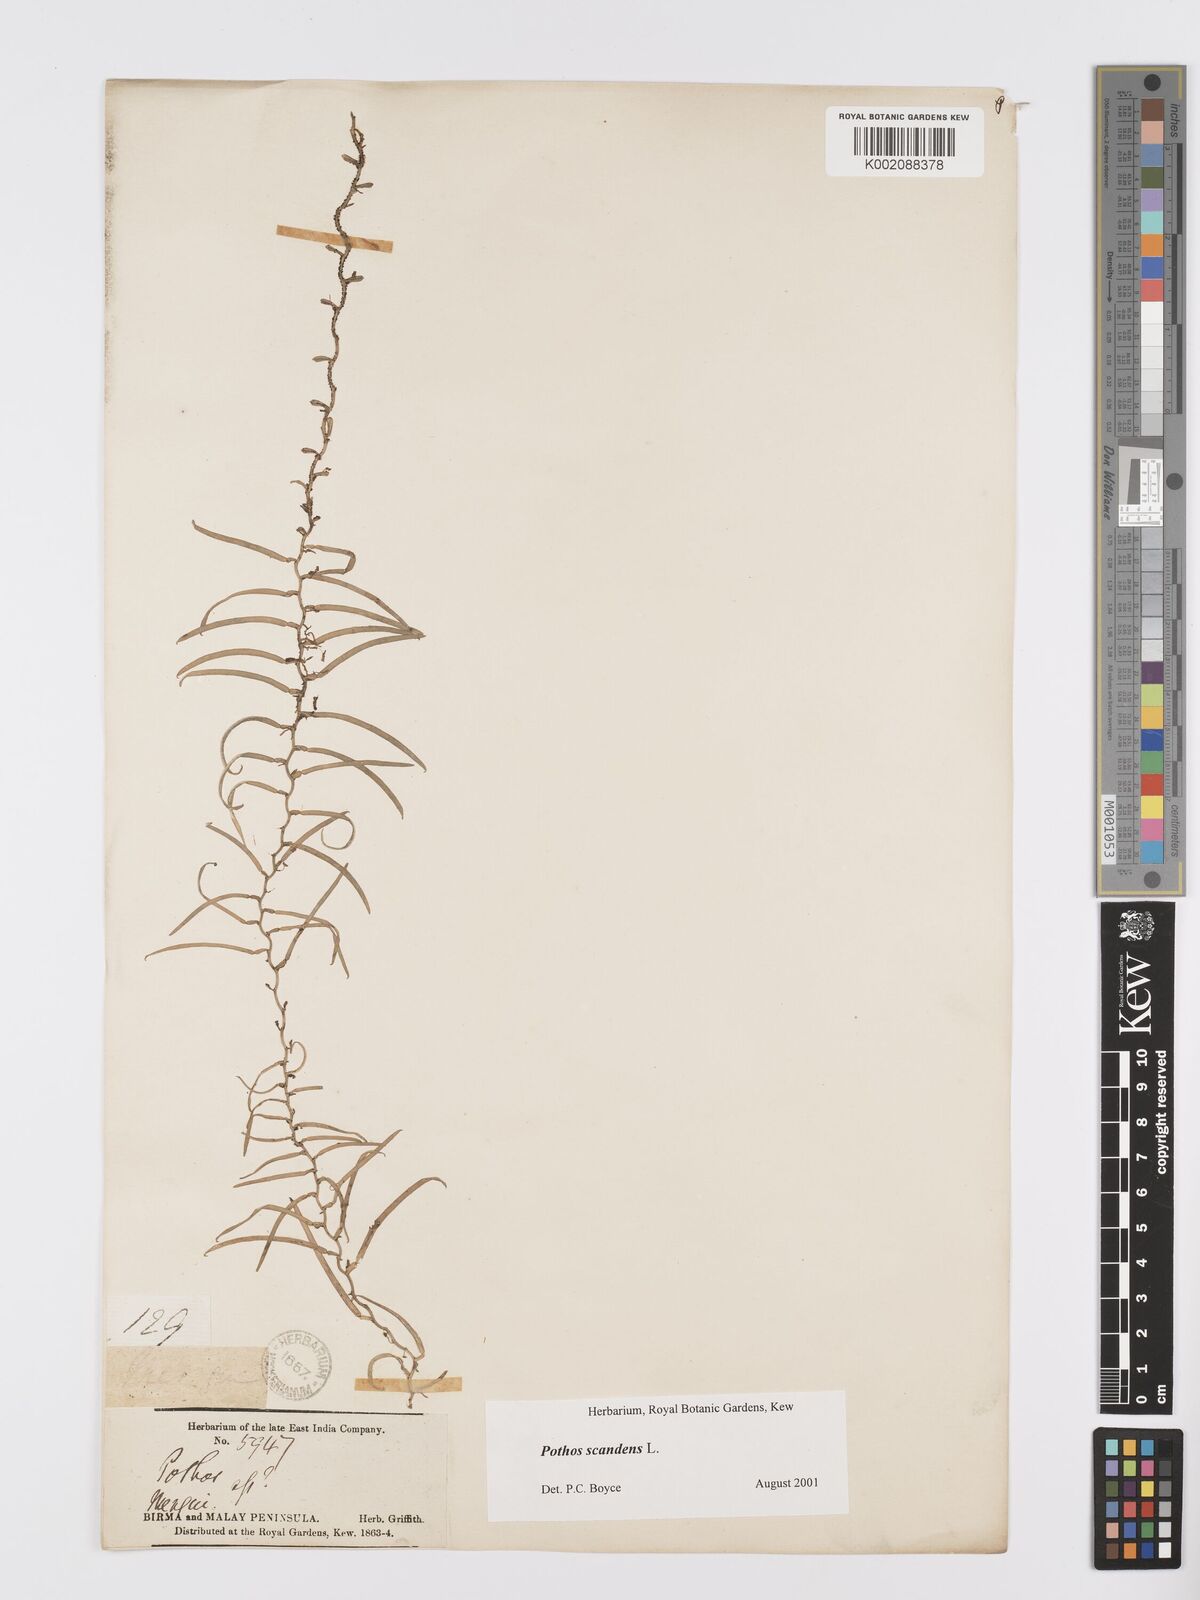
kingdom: Plantae
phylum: Tracheophyta
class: Liliopsida
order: Alismatales
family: Araceae
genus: Pothos
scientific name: Pothos scandens
